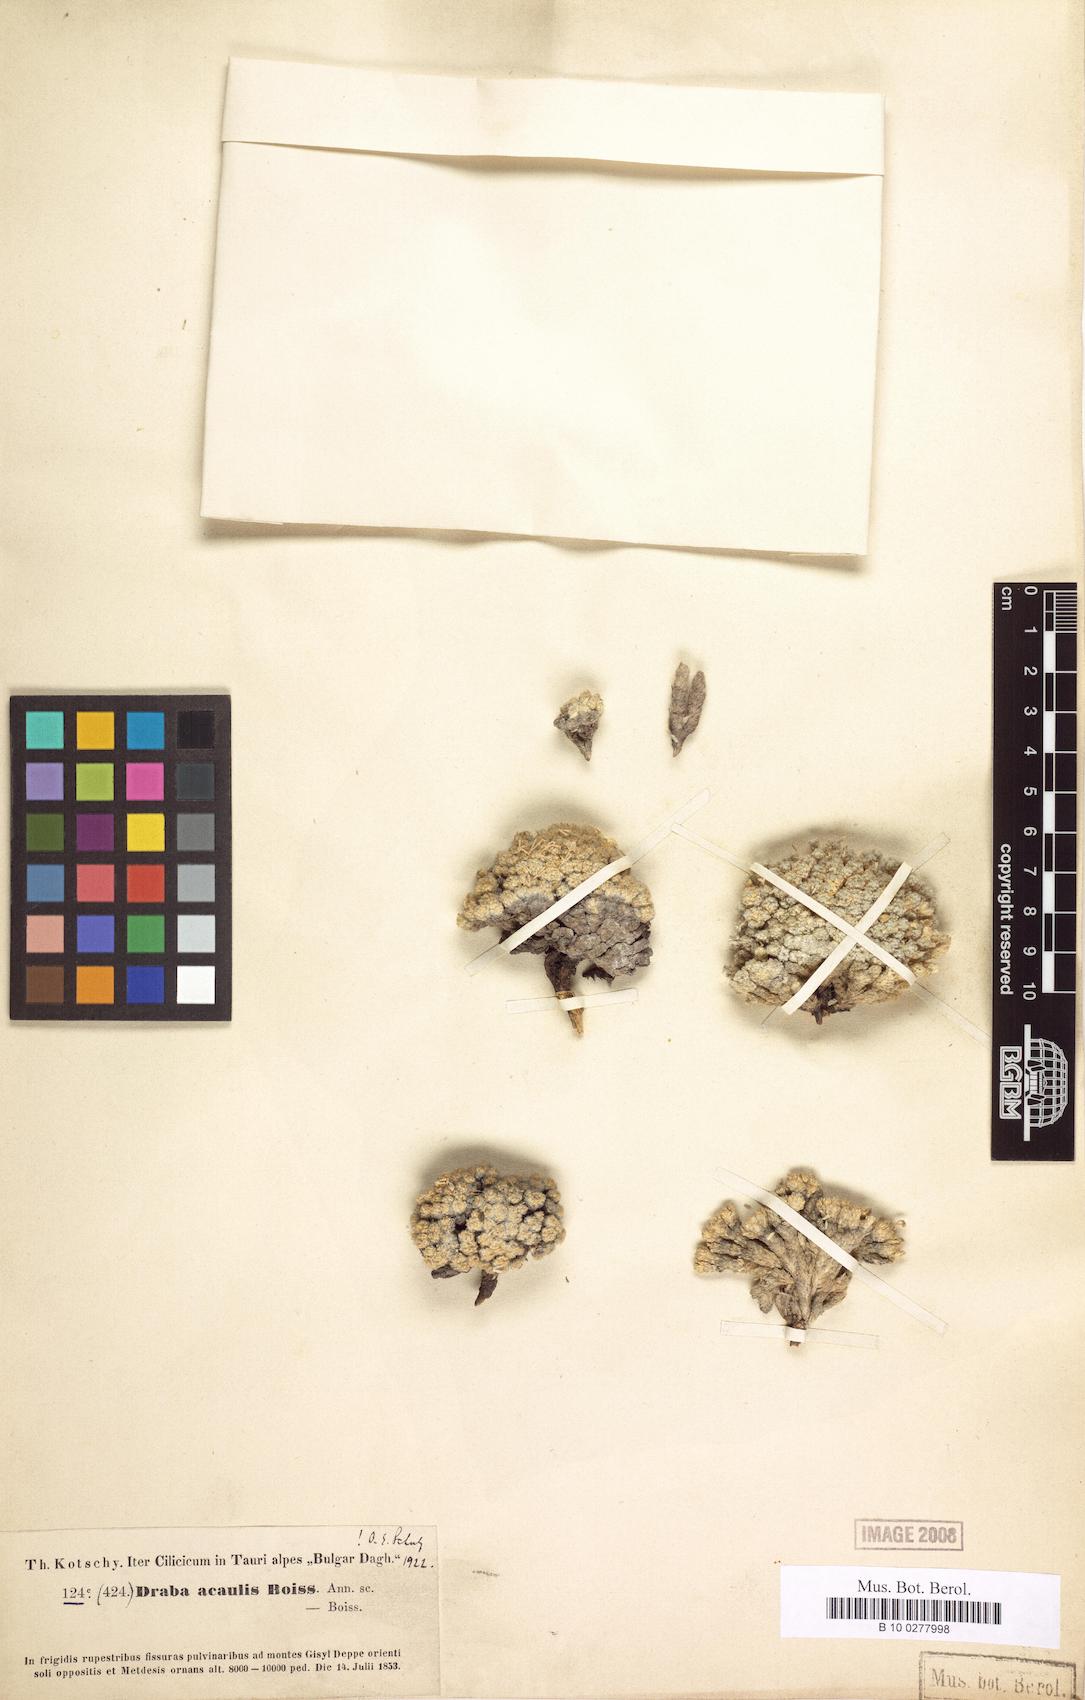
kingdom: Plantae
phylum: Tracheophyta
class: Magnoliopsida
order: Brassicales
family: Brassicaceae
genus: Draba
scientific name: Draba acaulis
